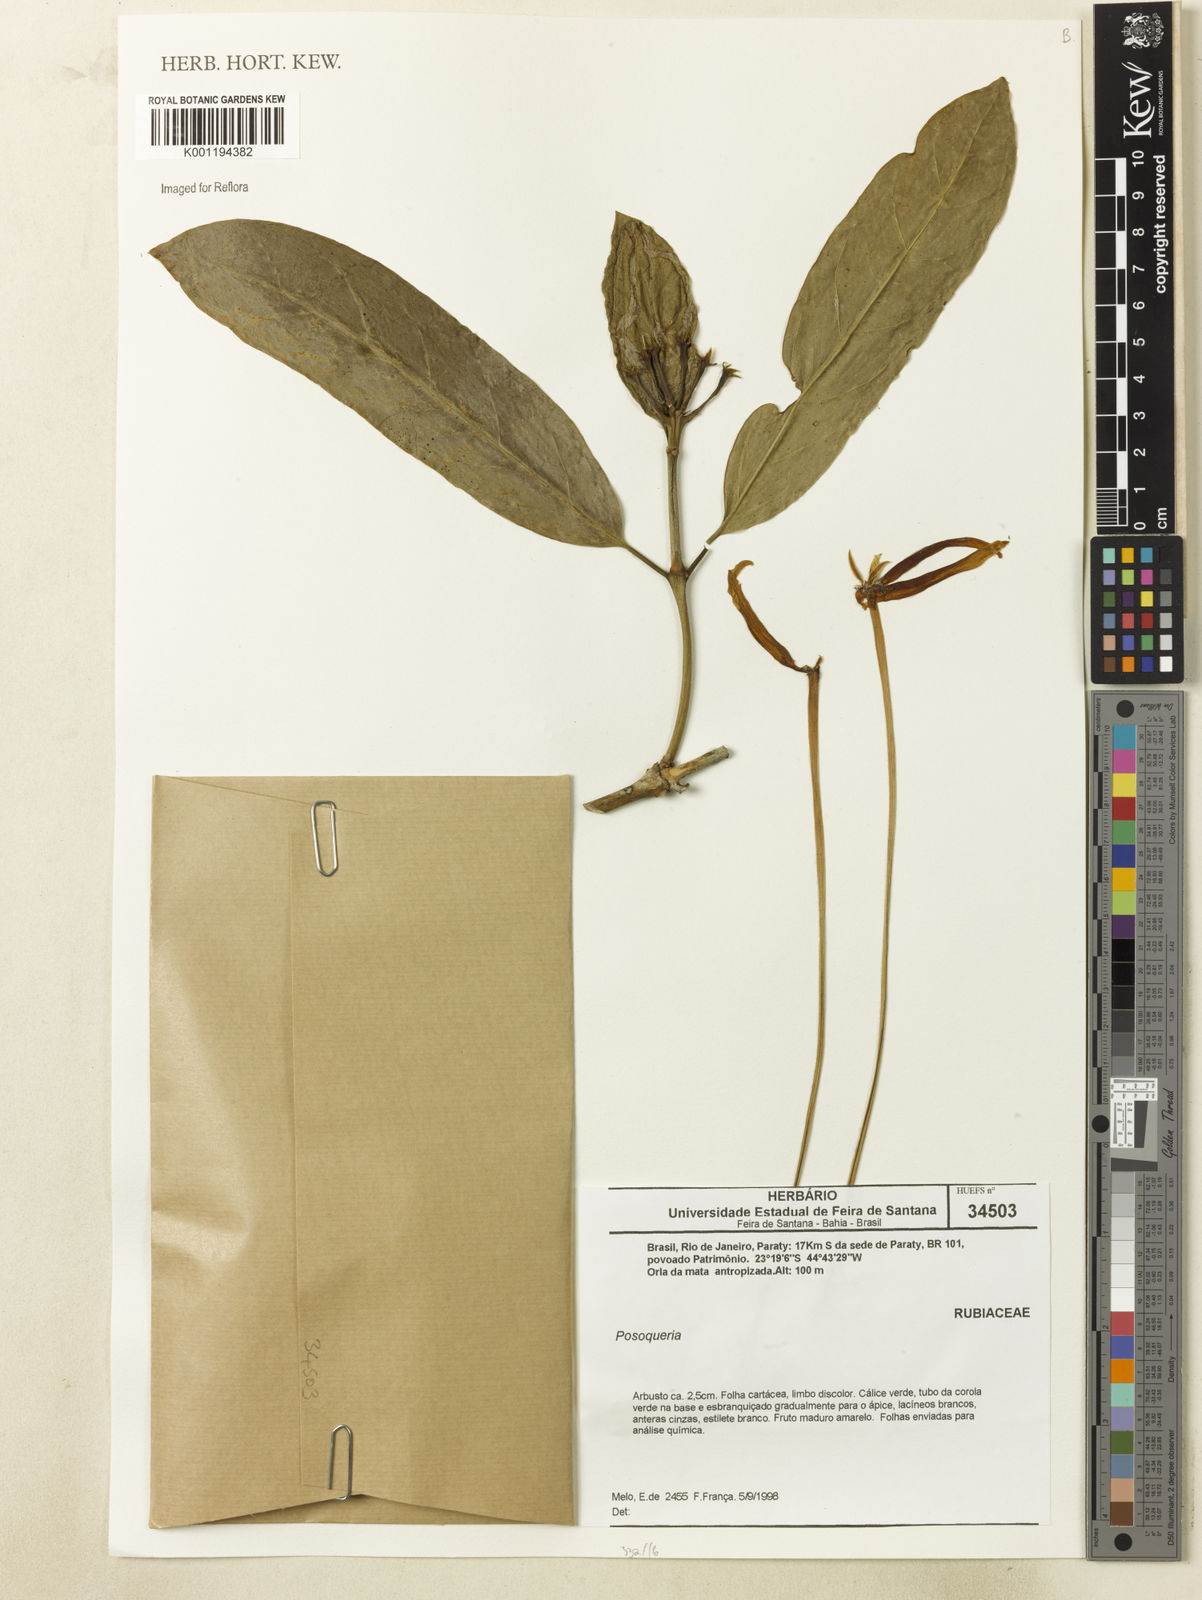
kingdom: Plantae
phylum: Tracheophyta
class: Magnoliopsida
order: Gentianales
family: Rubiaceae
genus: Posoqueria
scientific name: Posoqueria
